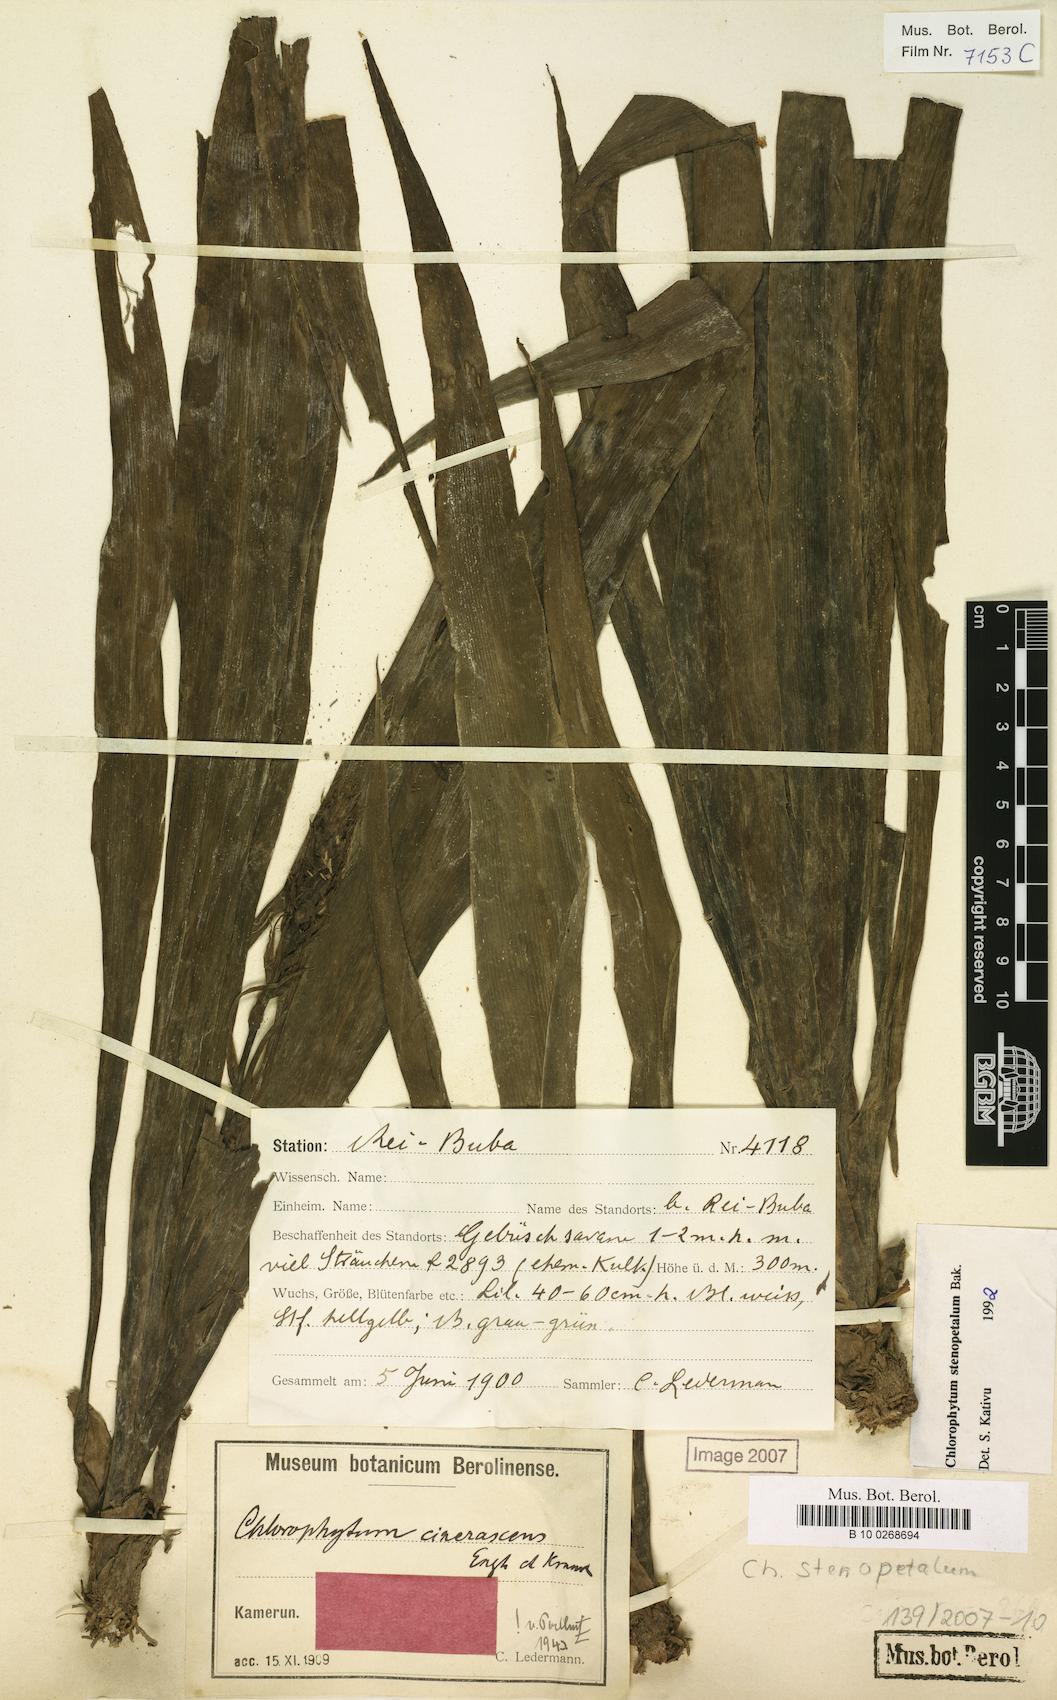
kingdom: Plantae
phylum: Tracheophyta
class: Liliopsida
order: Asparagales
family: Asparagaceae
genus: Chlorophytum
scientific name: Chlorophytum stenopetalum
